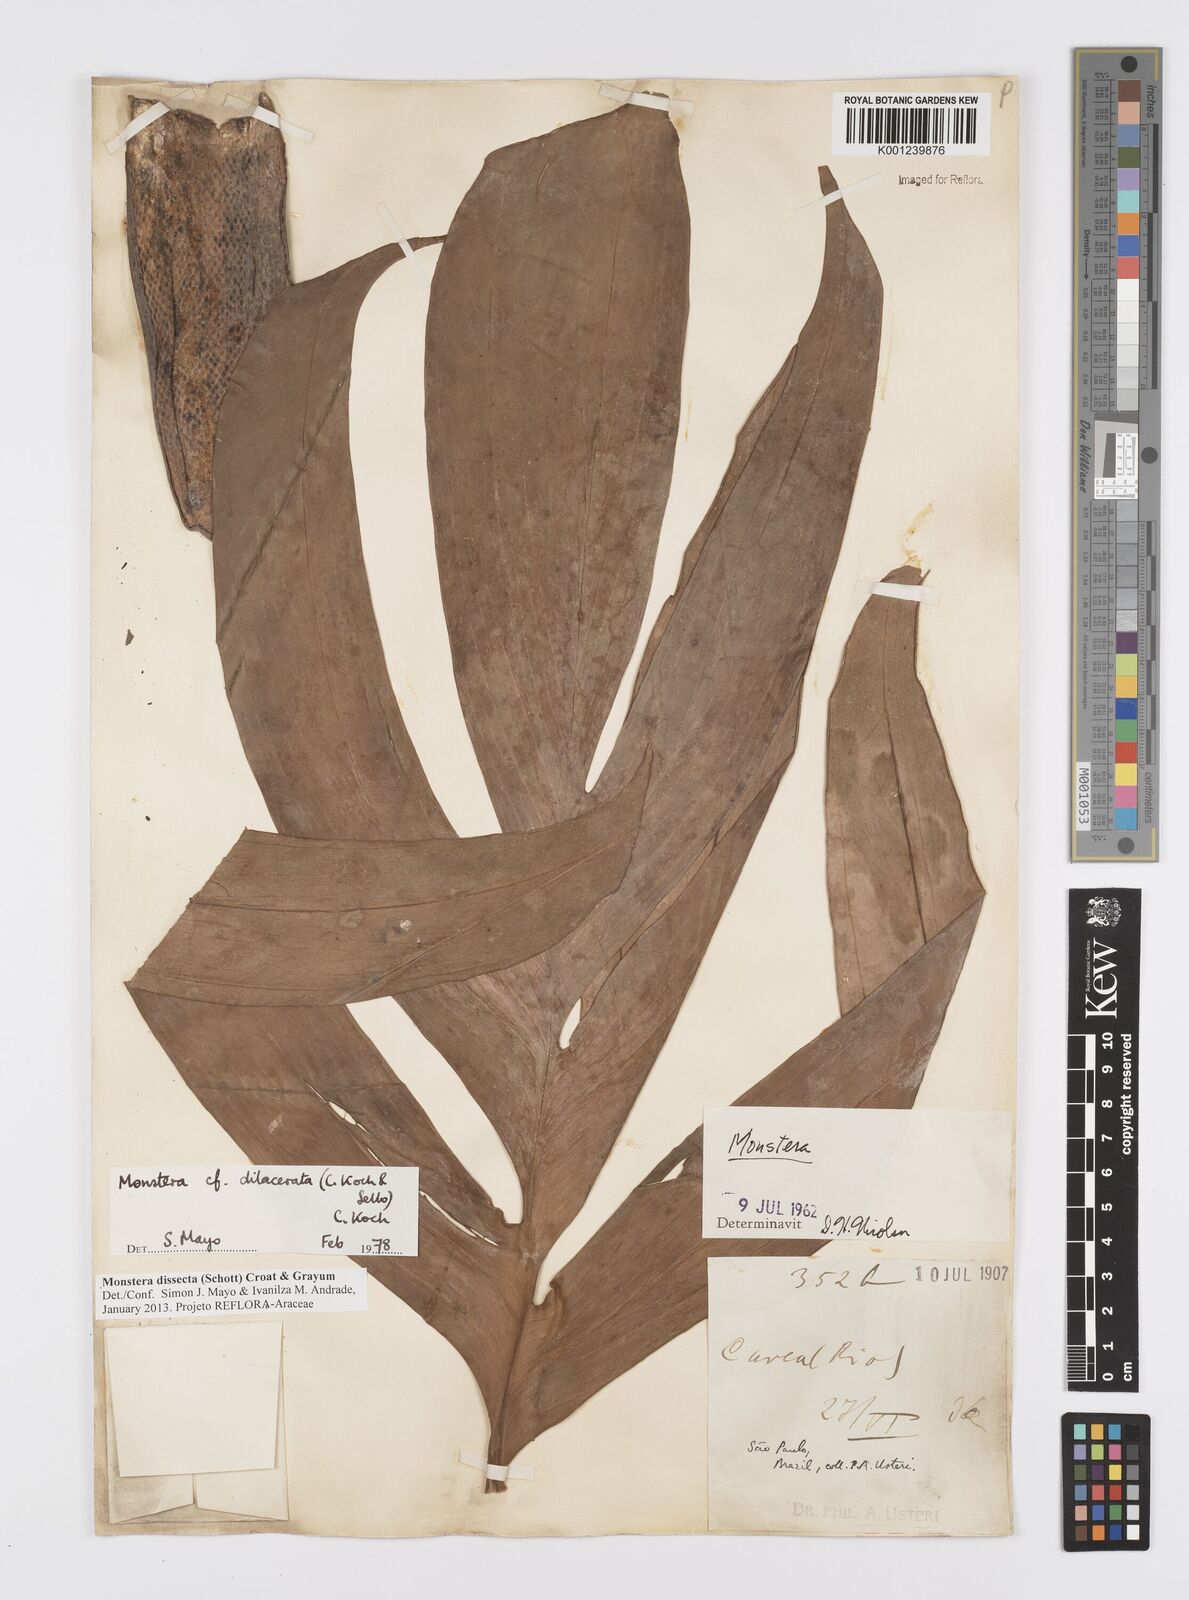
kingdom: Plantae
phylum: Tracheophyta
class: Liliopsida
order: Alismatales
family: Araceae
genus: Monstera
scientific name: Monstera dissecta
